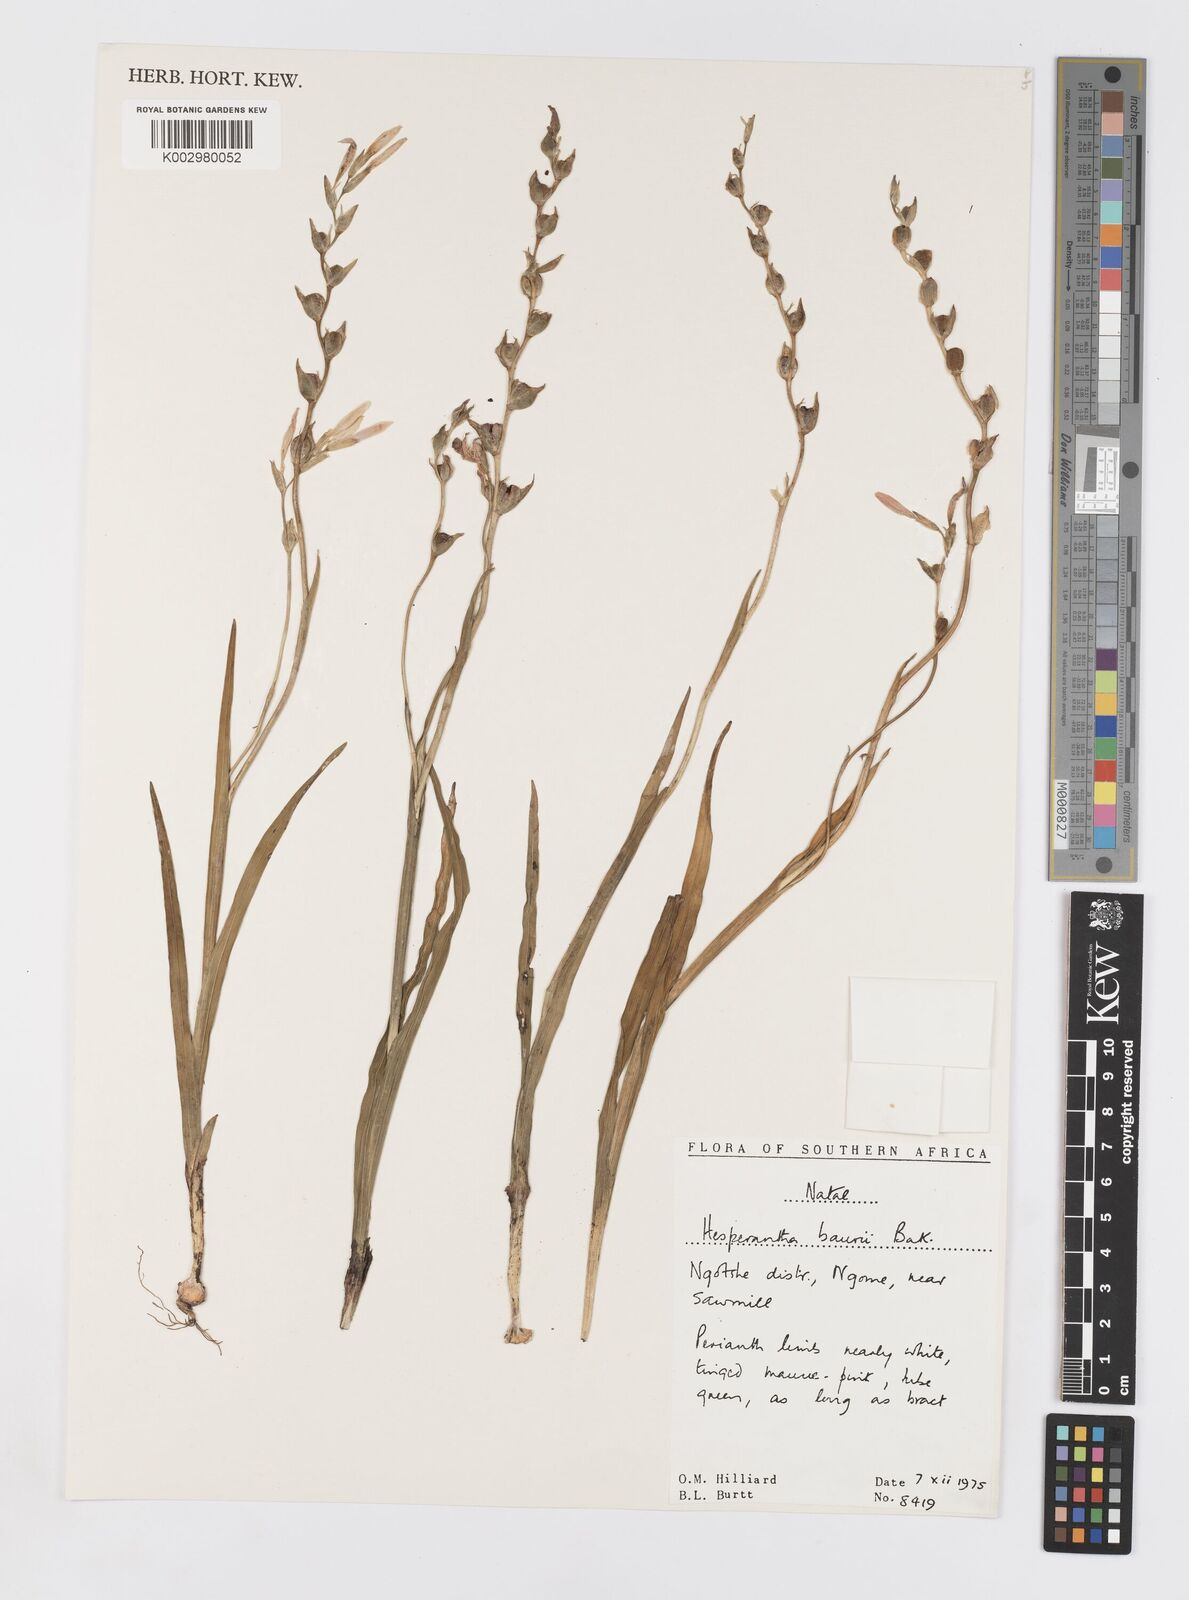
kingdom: Plantae
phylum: Tracheophyta
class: Liliopsida
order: Asparagales
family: Iridaceae
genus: Hesperantha
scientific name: Hesperantha baurii
